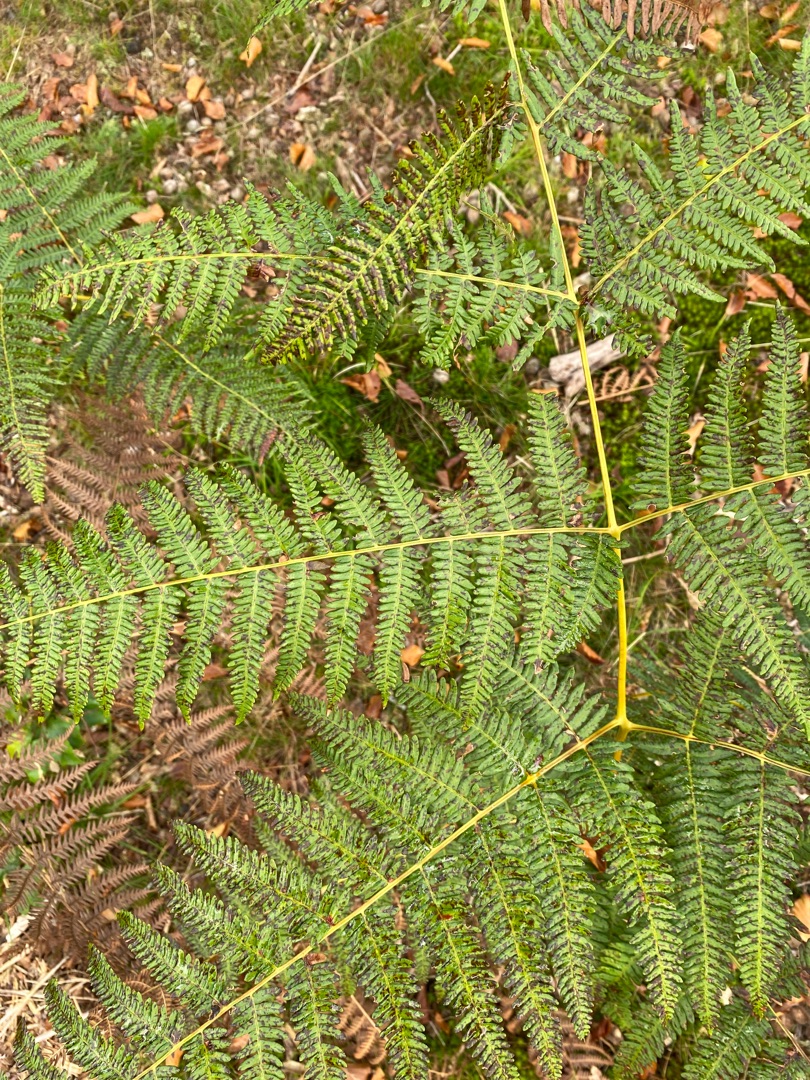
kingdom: Plantae
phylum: Tracheophyta
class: Polypodiopsida
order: Polypodiales
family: Dennstaedtiaceae
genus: Pteridium
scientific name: Pteridium aquilinum
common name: Ørnebregne
